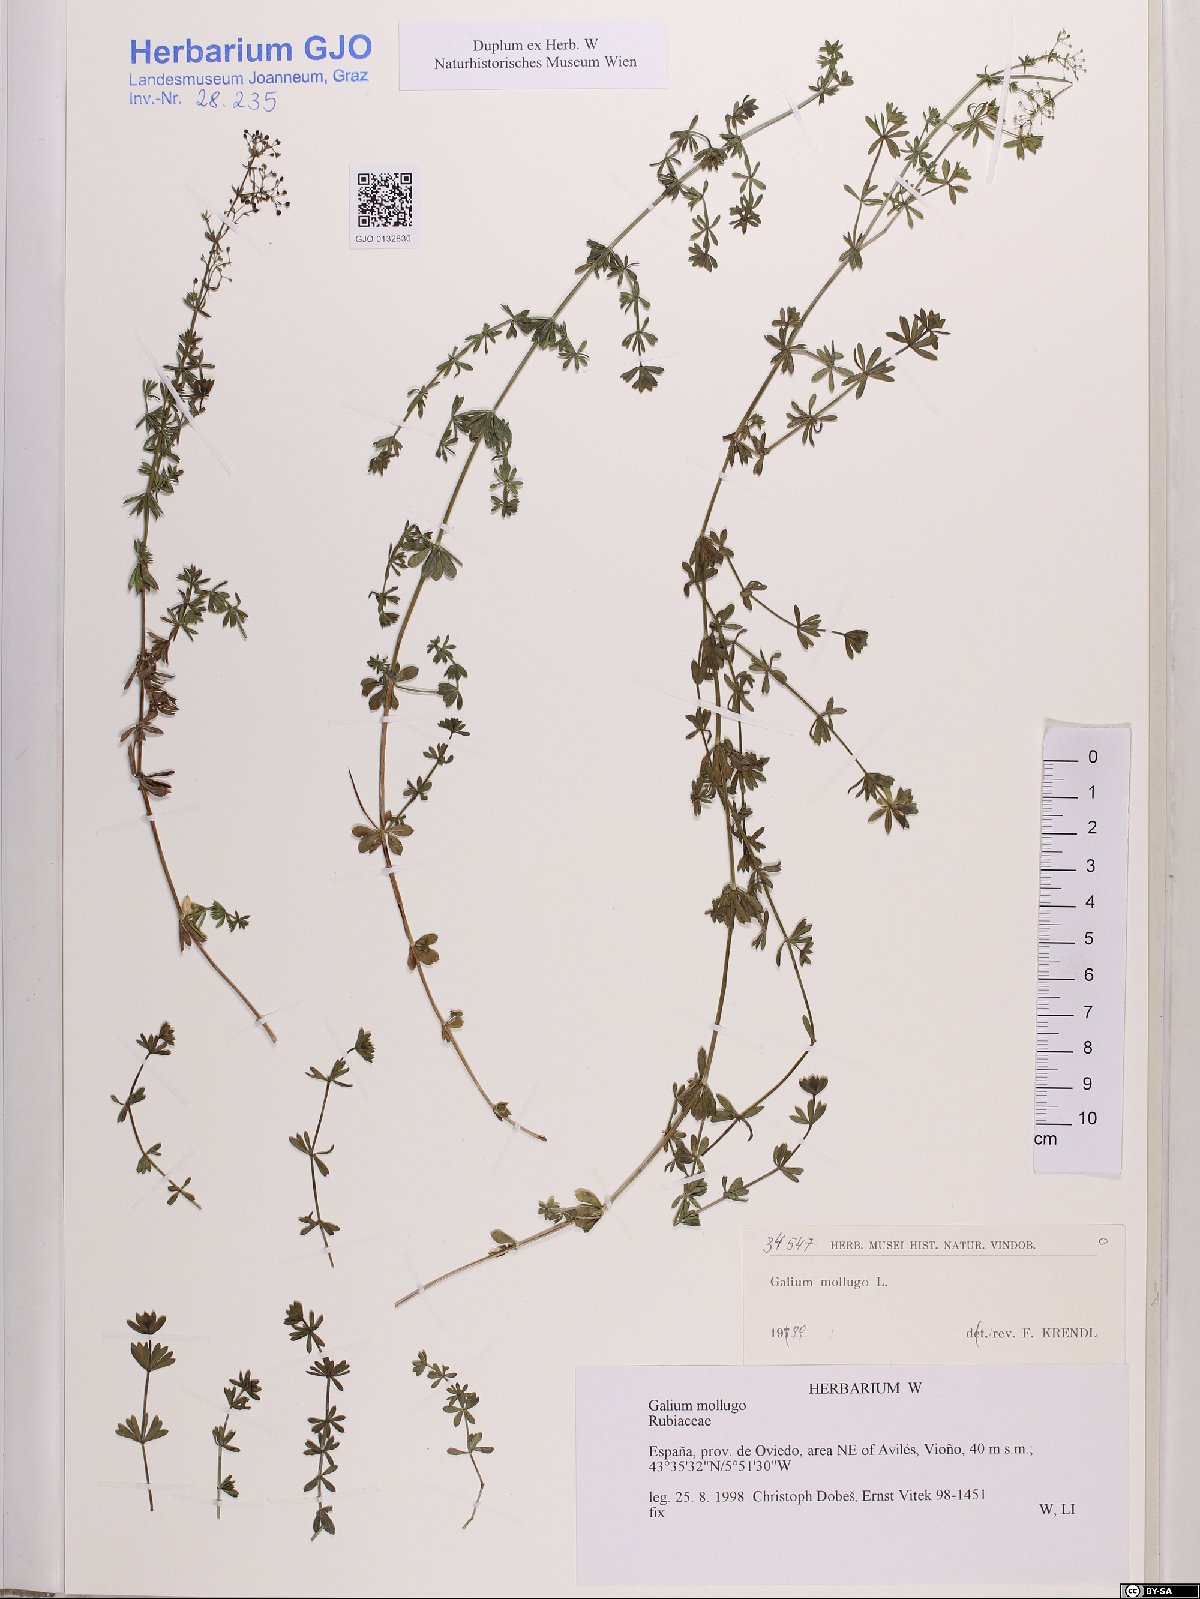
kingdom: Plantae
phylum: Tracheophyta
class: Magnoliopsida
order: Gentianales
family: Rubiaceae
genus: Galium
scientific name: Galium mollugo
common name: Hedge bedstraw
